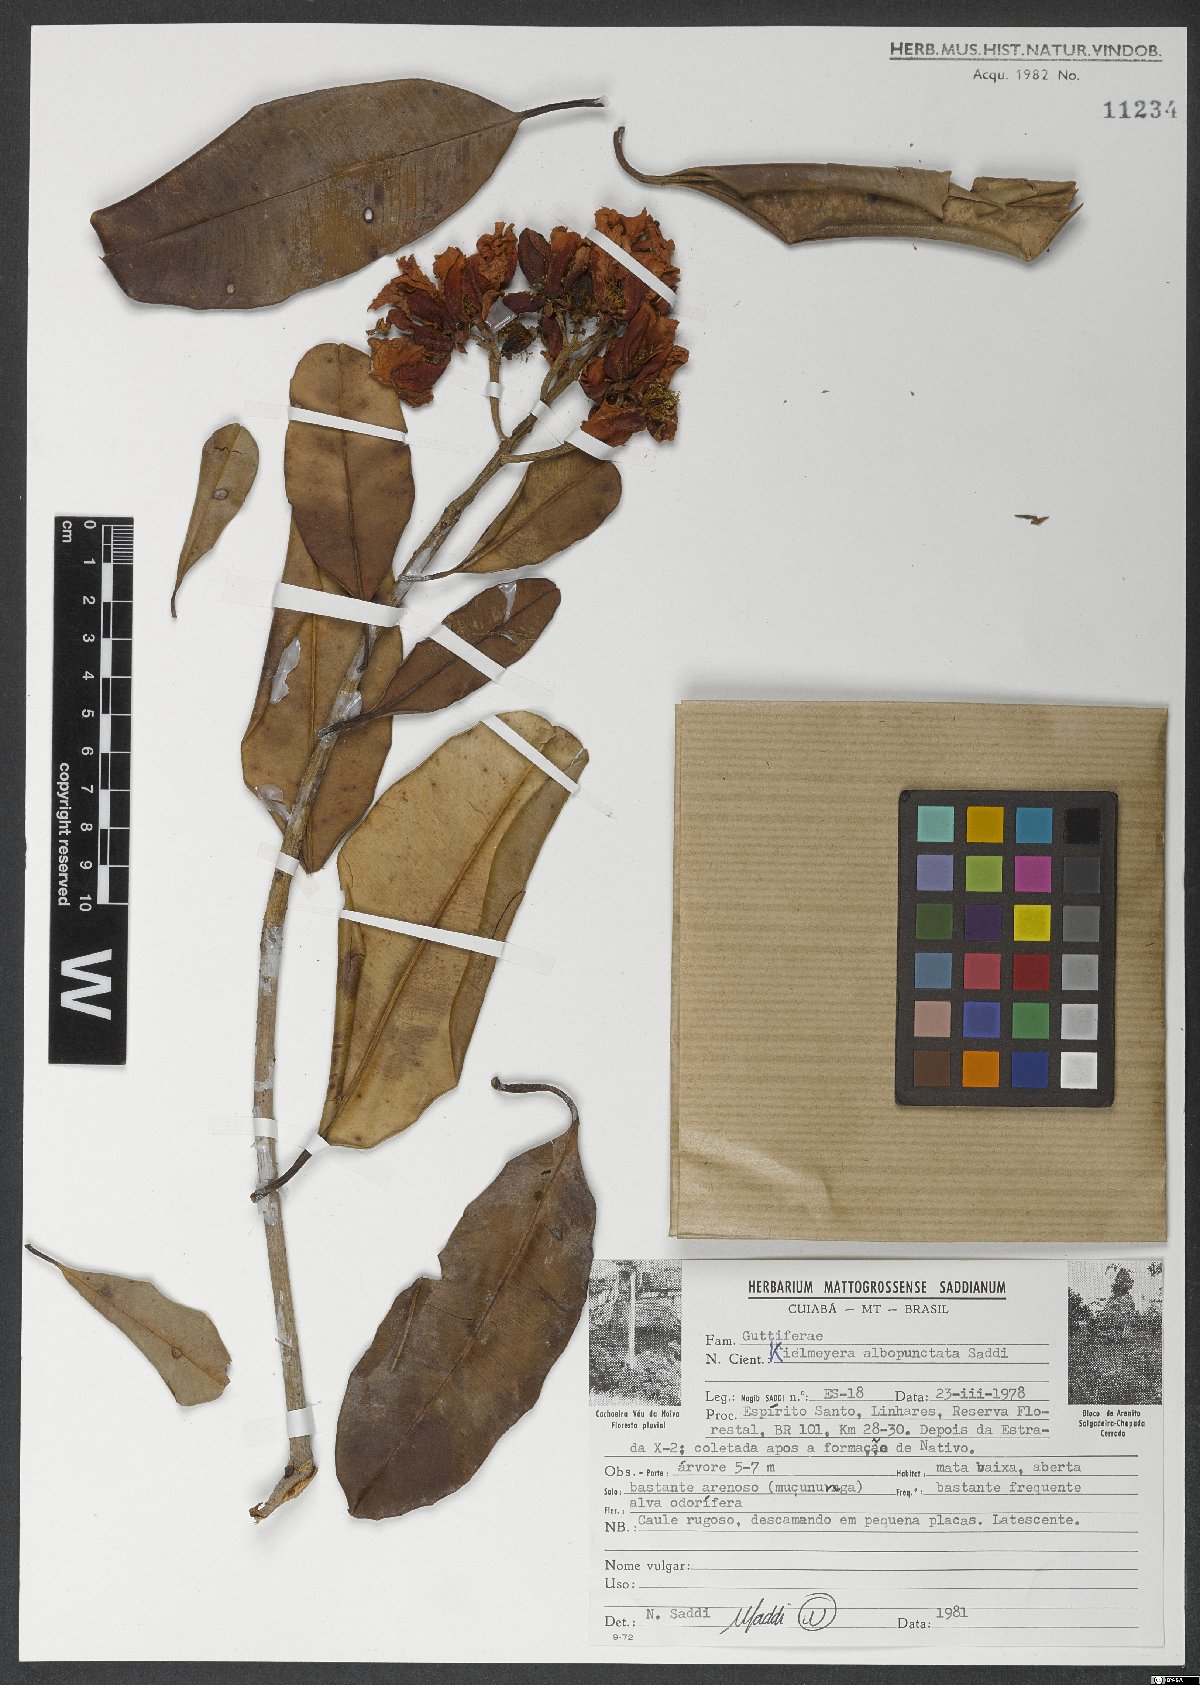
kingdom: Plantae
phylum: Tracheophyta
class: Magnoliopsida
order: Malpighiales
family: Calophyllaceae
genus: Kielmeyera
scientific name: Kielmeyera albopunctata
